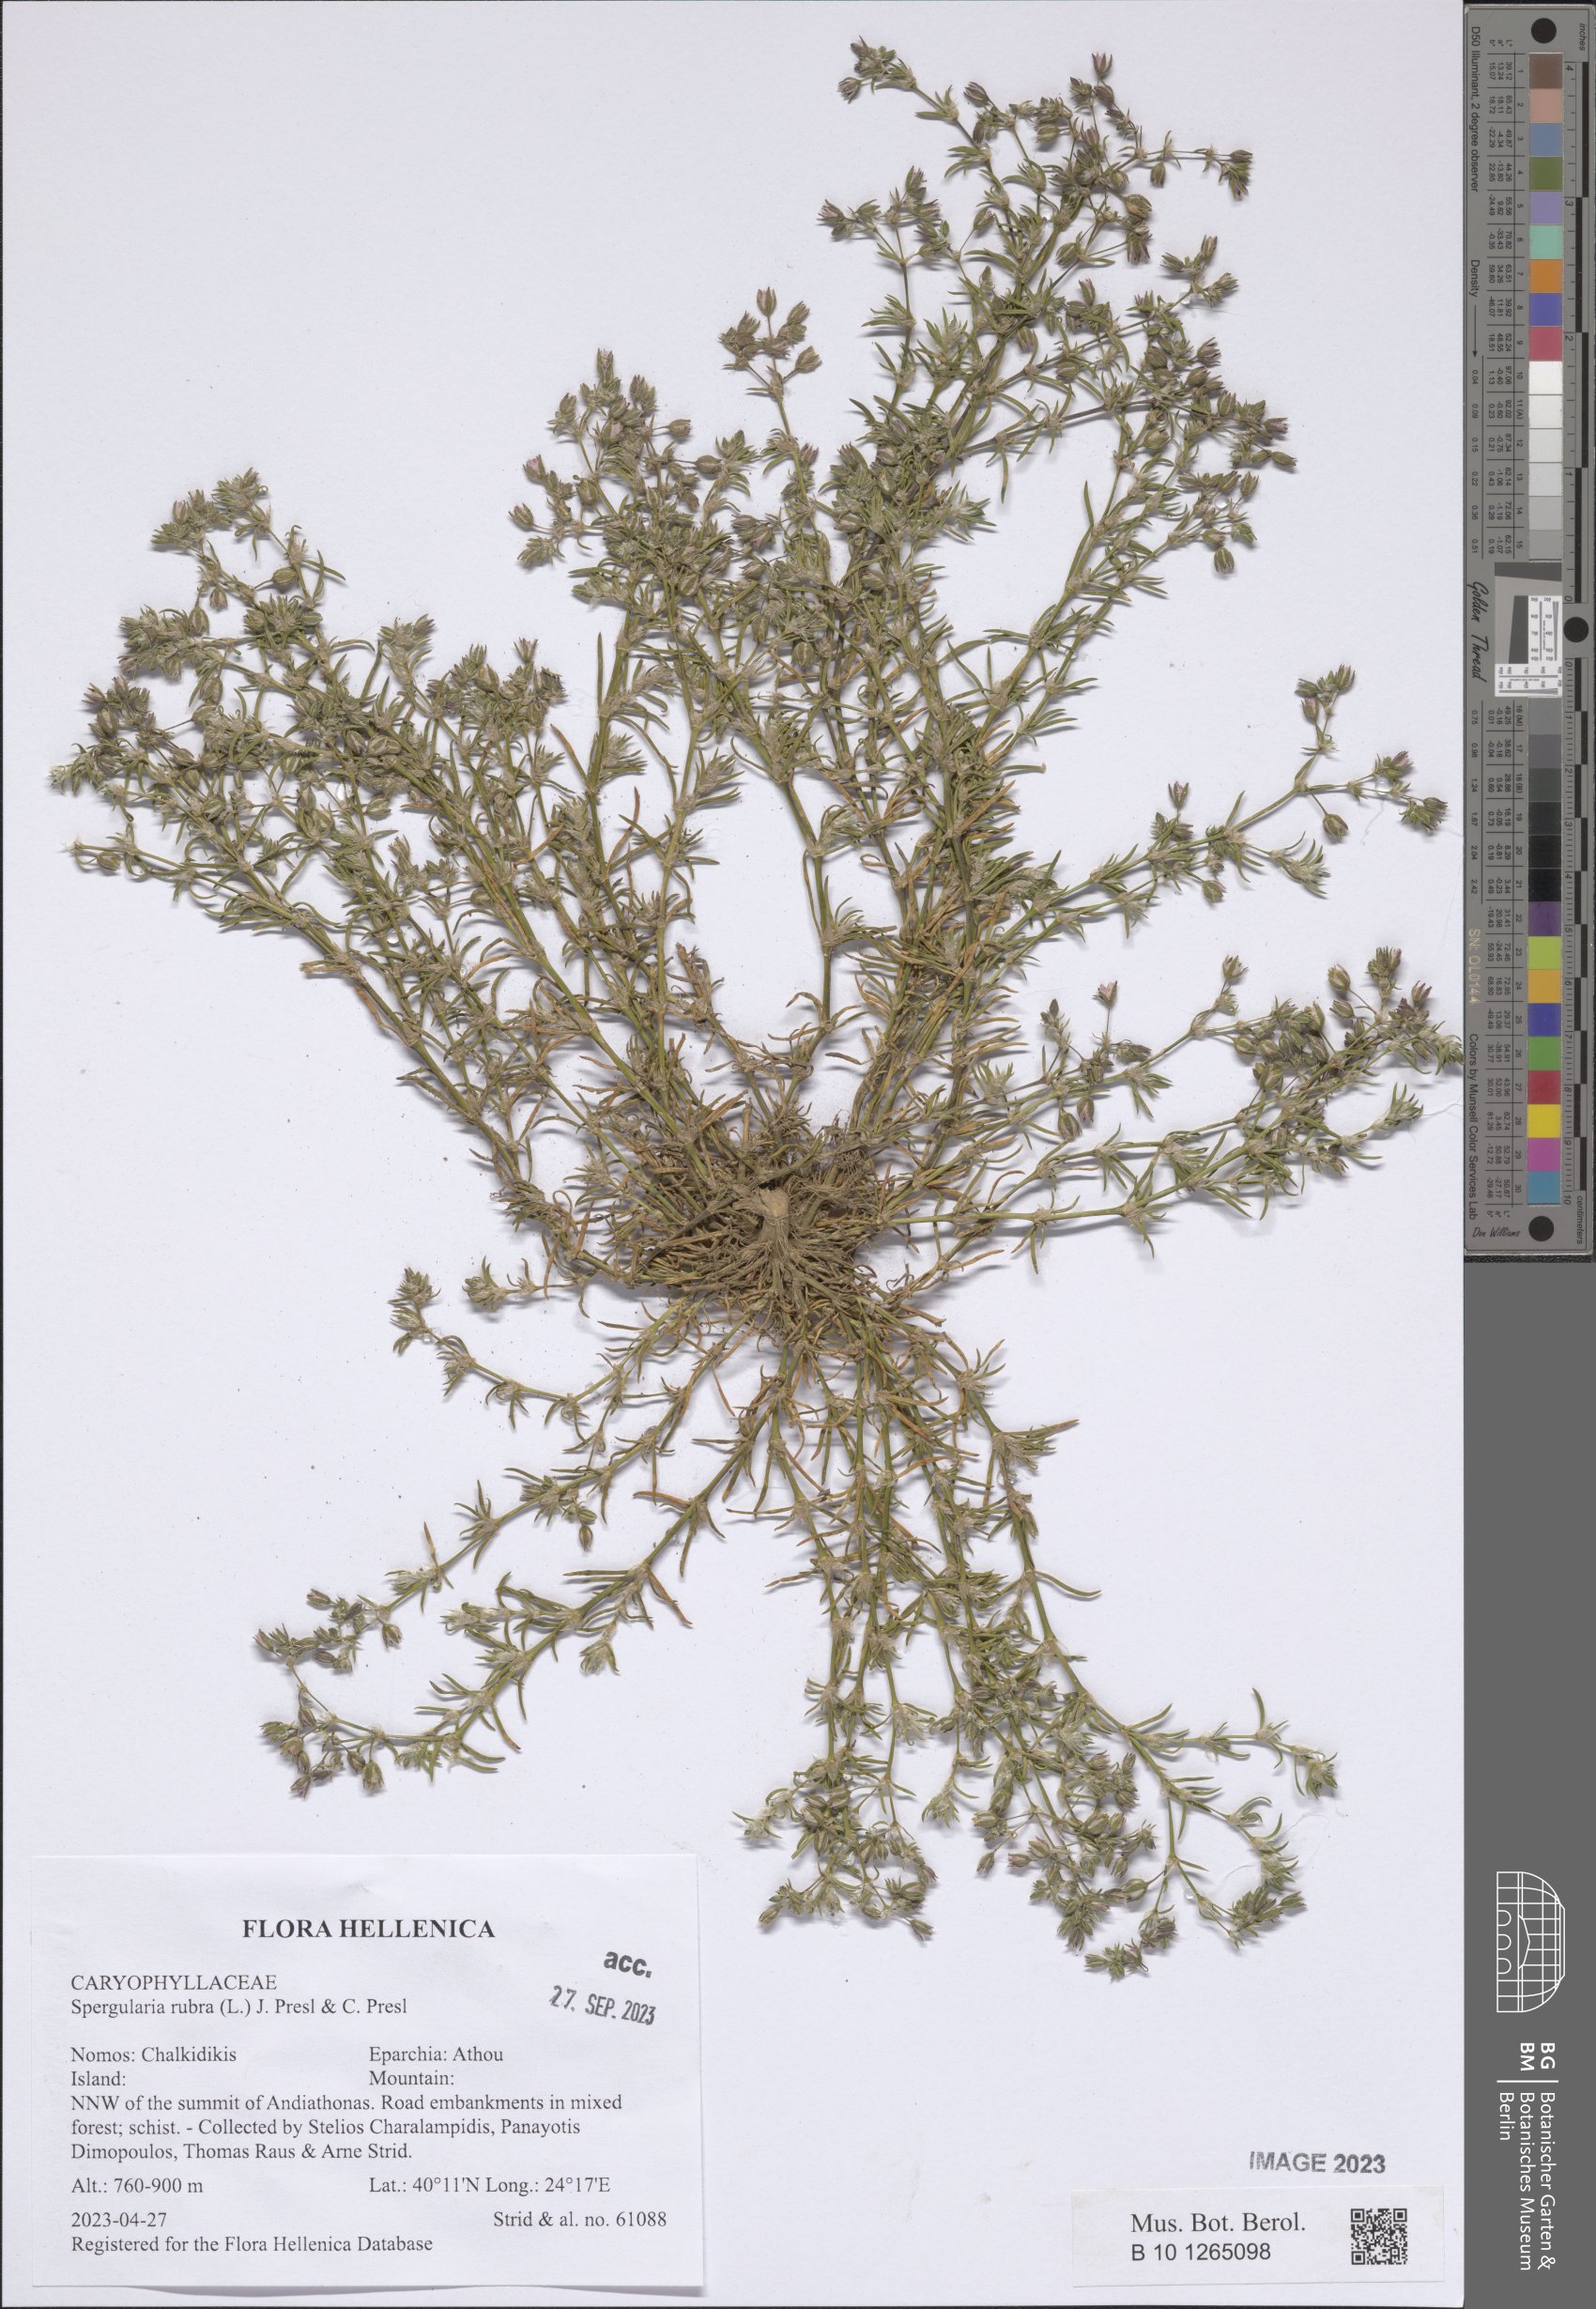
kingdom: Plantae
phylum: Tracheophyta
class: Magnoliopsida
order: Caryophyllales
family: Caryophyllaceae
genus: Spergularia
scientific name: Spergularia rubra
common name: Red sand-spurrey
